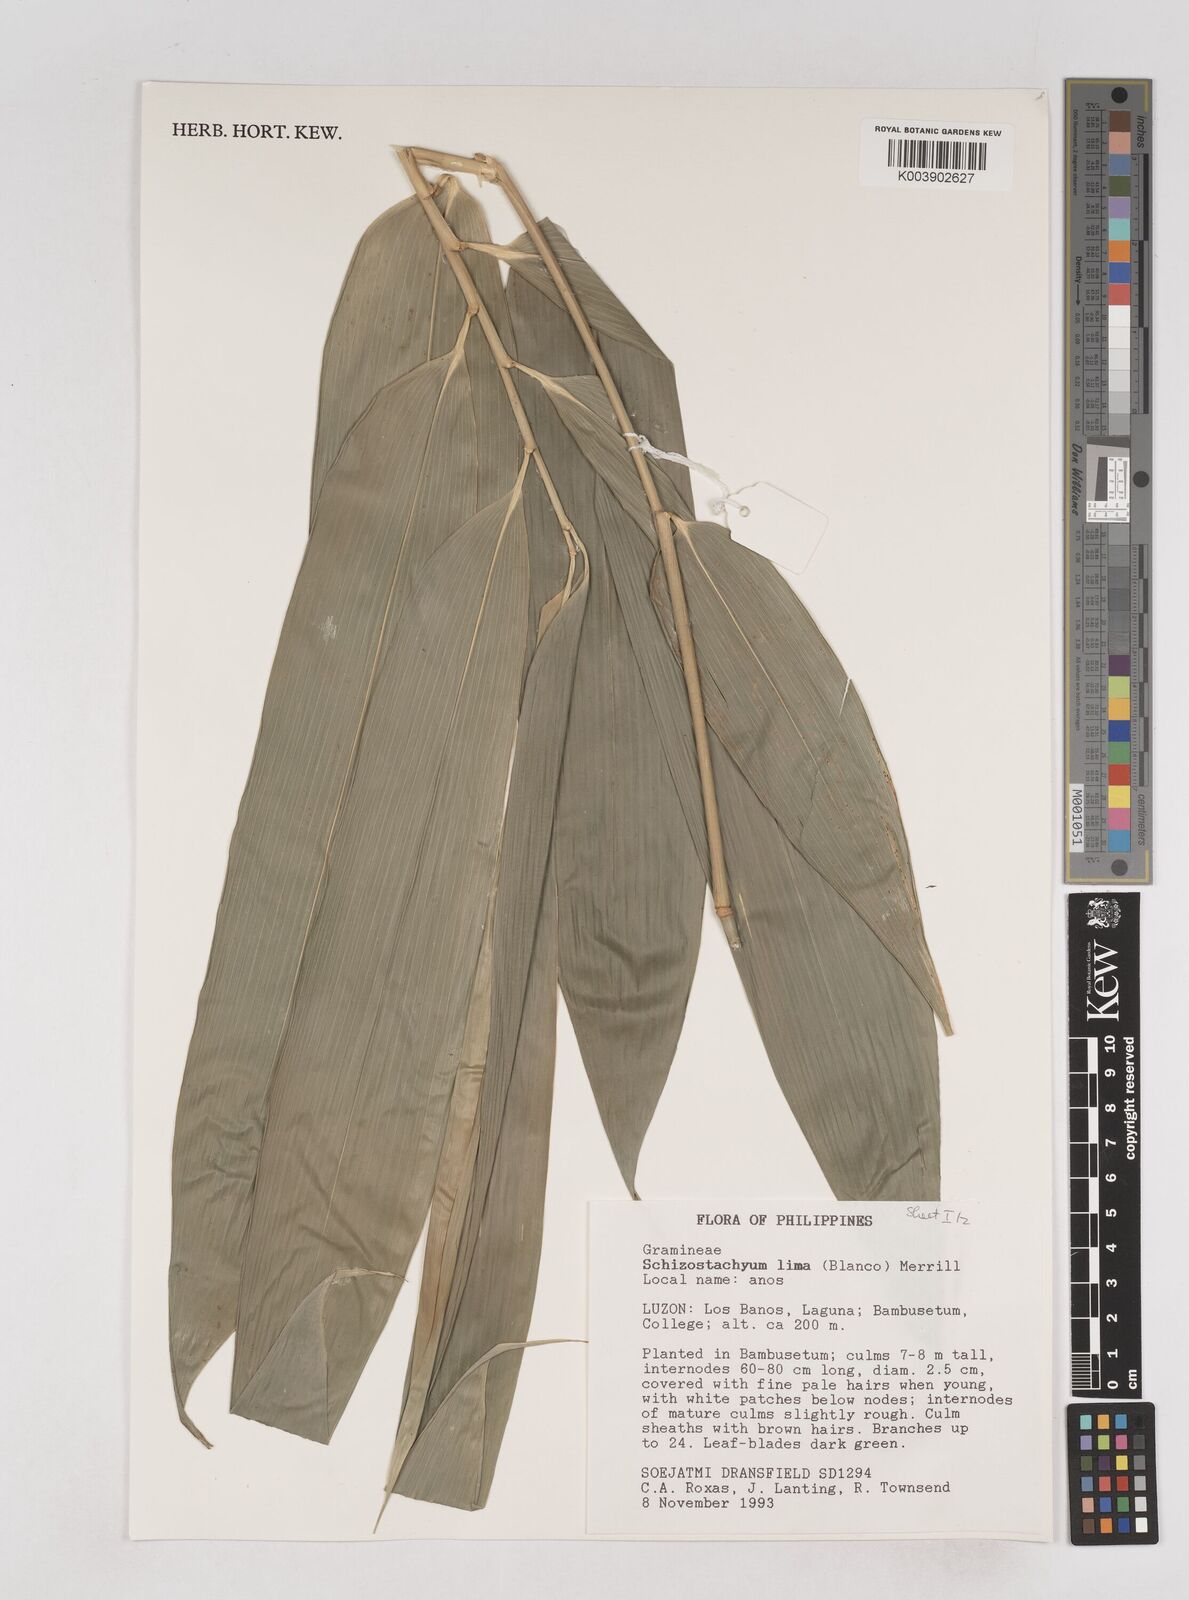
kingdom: Plantae
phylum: Tracheophyta
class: Liliopsida
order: Poales
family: Poaceae
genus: Schizostachyum
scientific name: Schizostachyum lima
